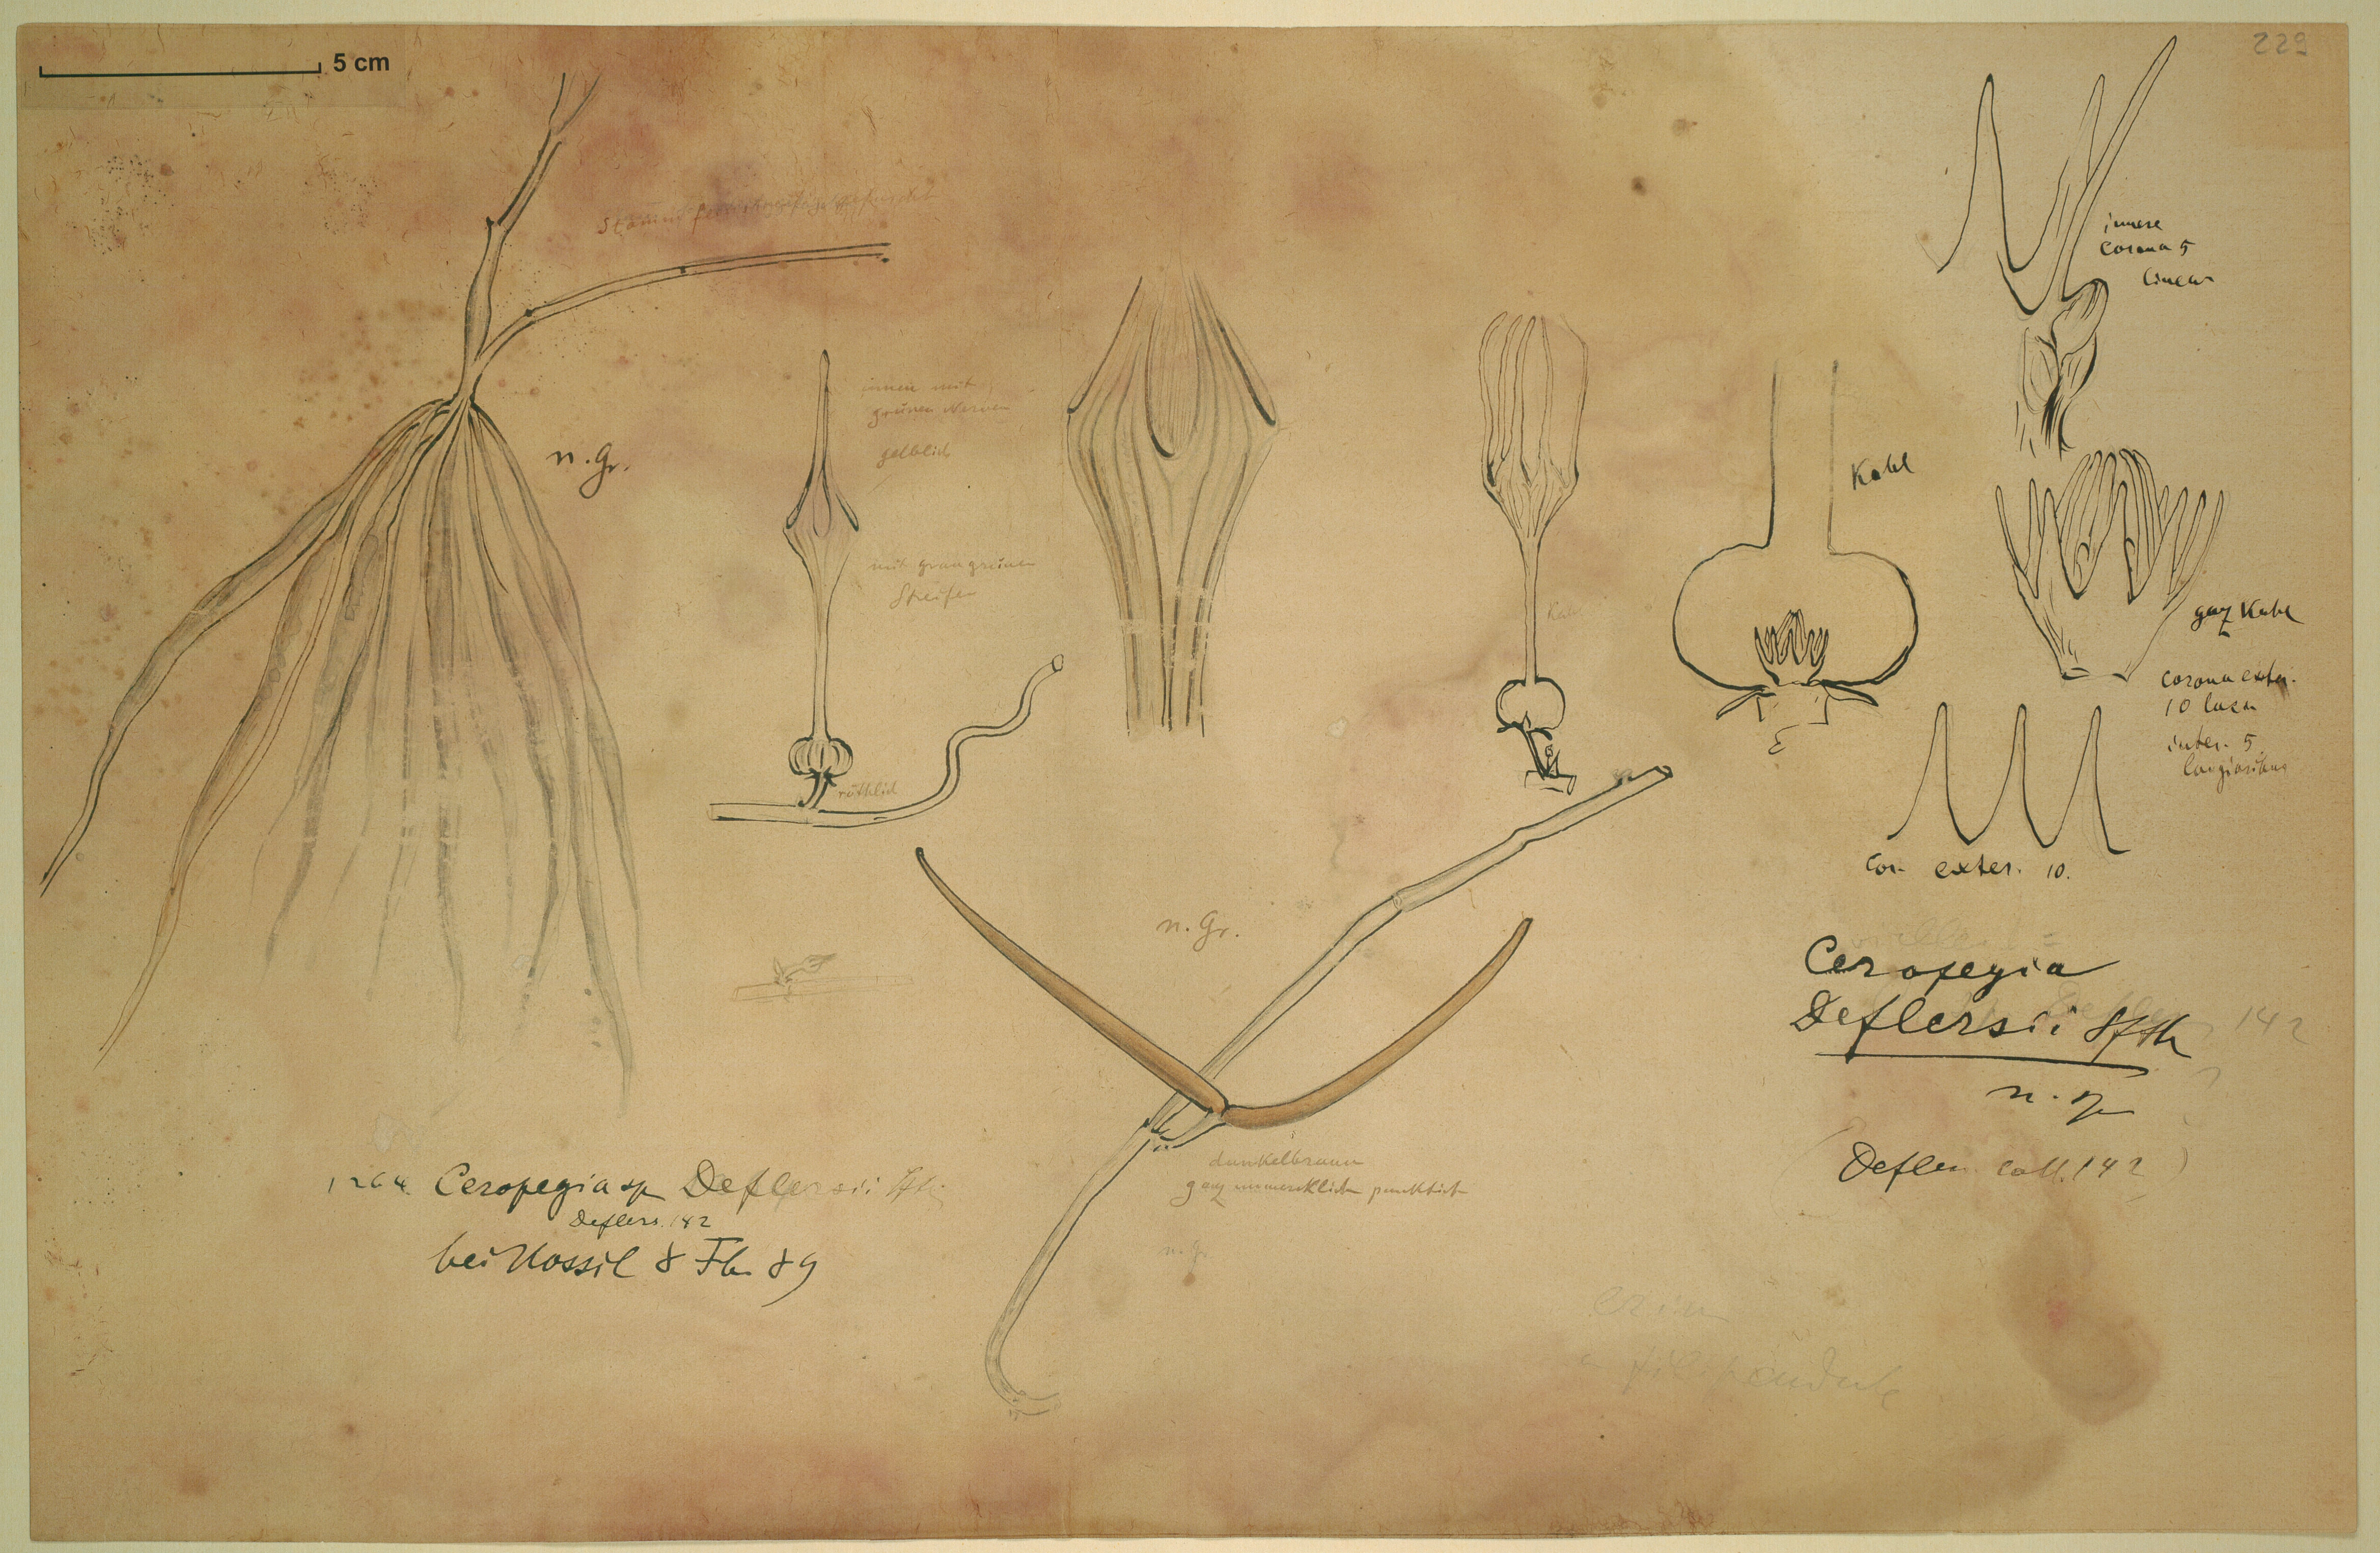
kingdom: Plantae
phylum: Tracheophyta
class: Magnoliopsida
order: Gentianales
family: Apocynaceae
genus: Ceropegia
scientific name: Ceropegia arabica
